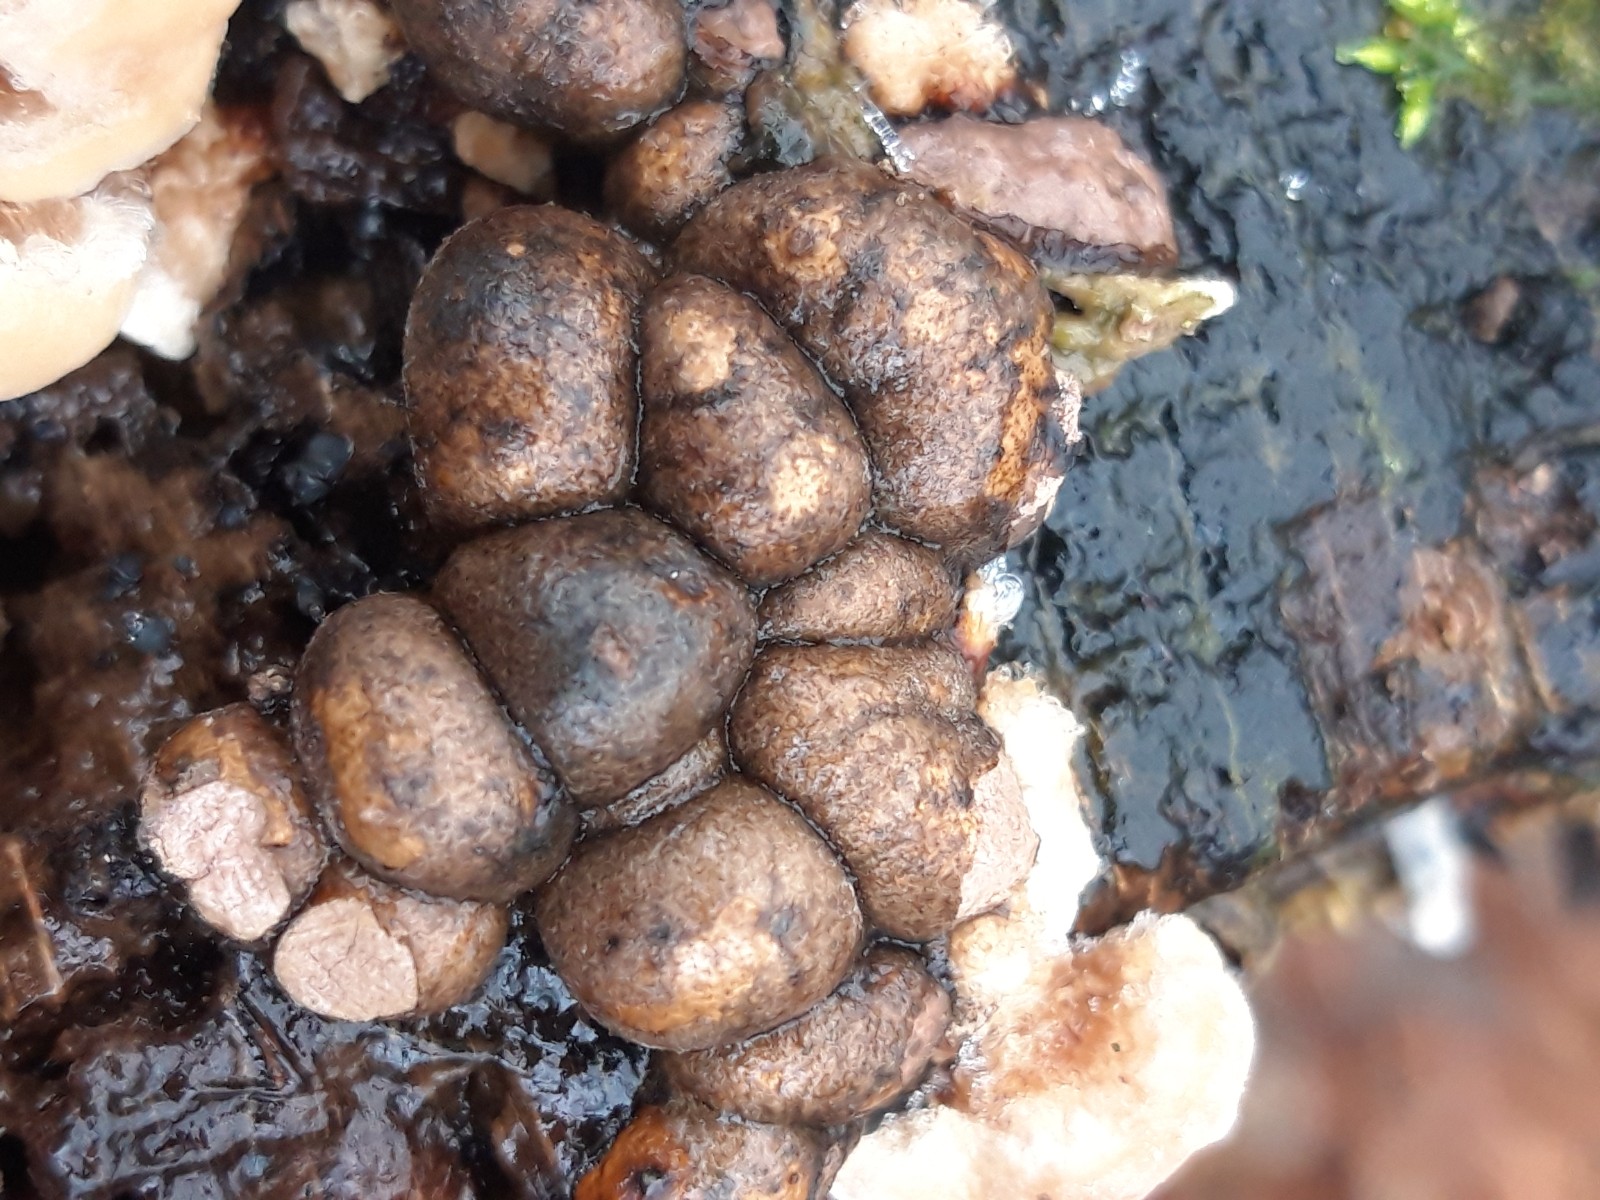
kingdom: Protozoa
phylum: Mycetozoa
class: Myxomycetes
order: Cribrariales
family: Tubiferaceae
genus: Lycogala
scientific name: Lycogala epidendrum
